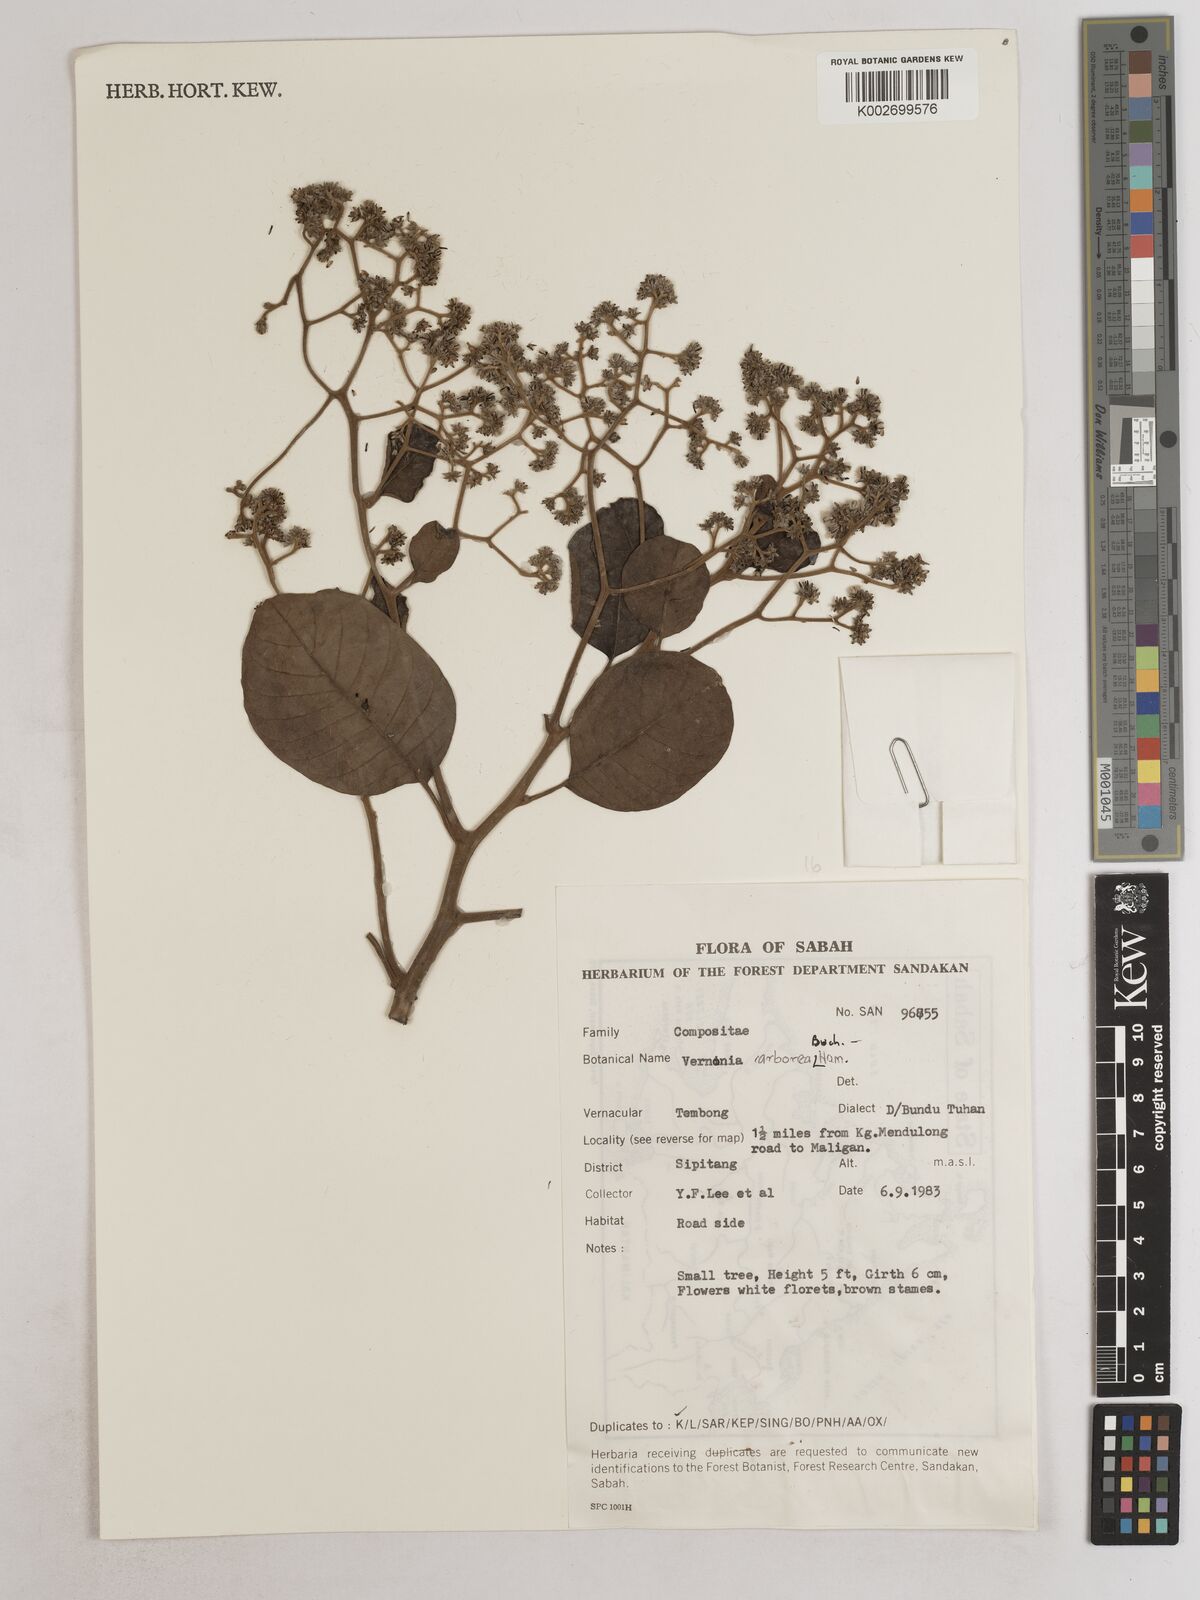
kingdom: Plantae
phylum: Tracheophyta
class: Magnoliopsida
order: Asterales
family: Asteraceae
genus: Strobocalyx
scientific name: Strobocalyx arborea
